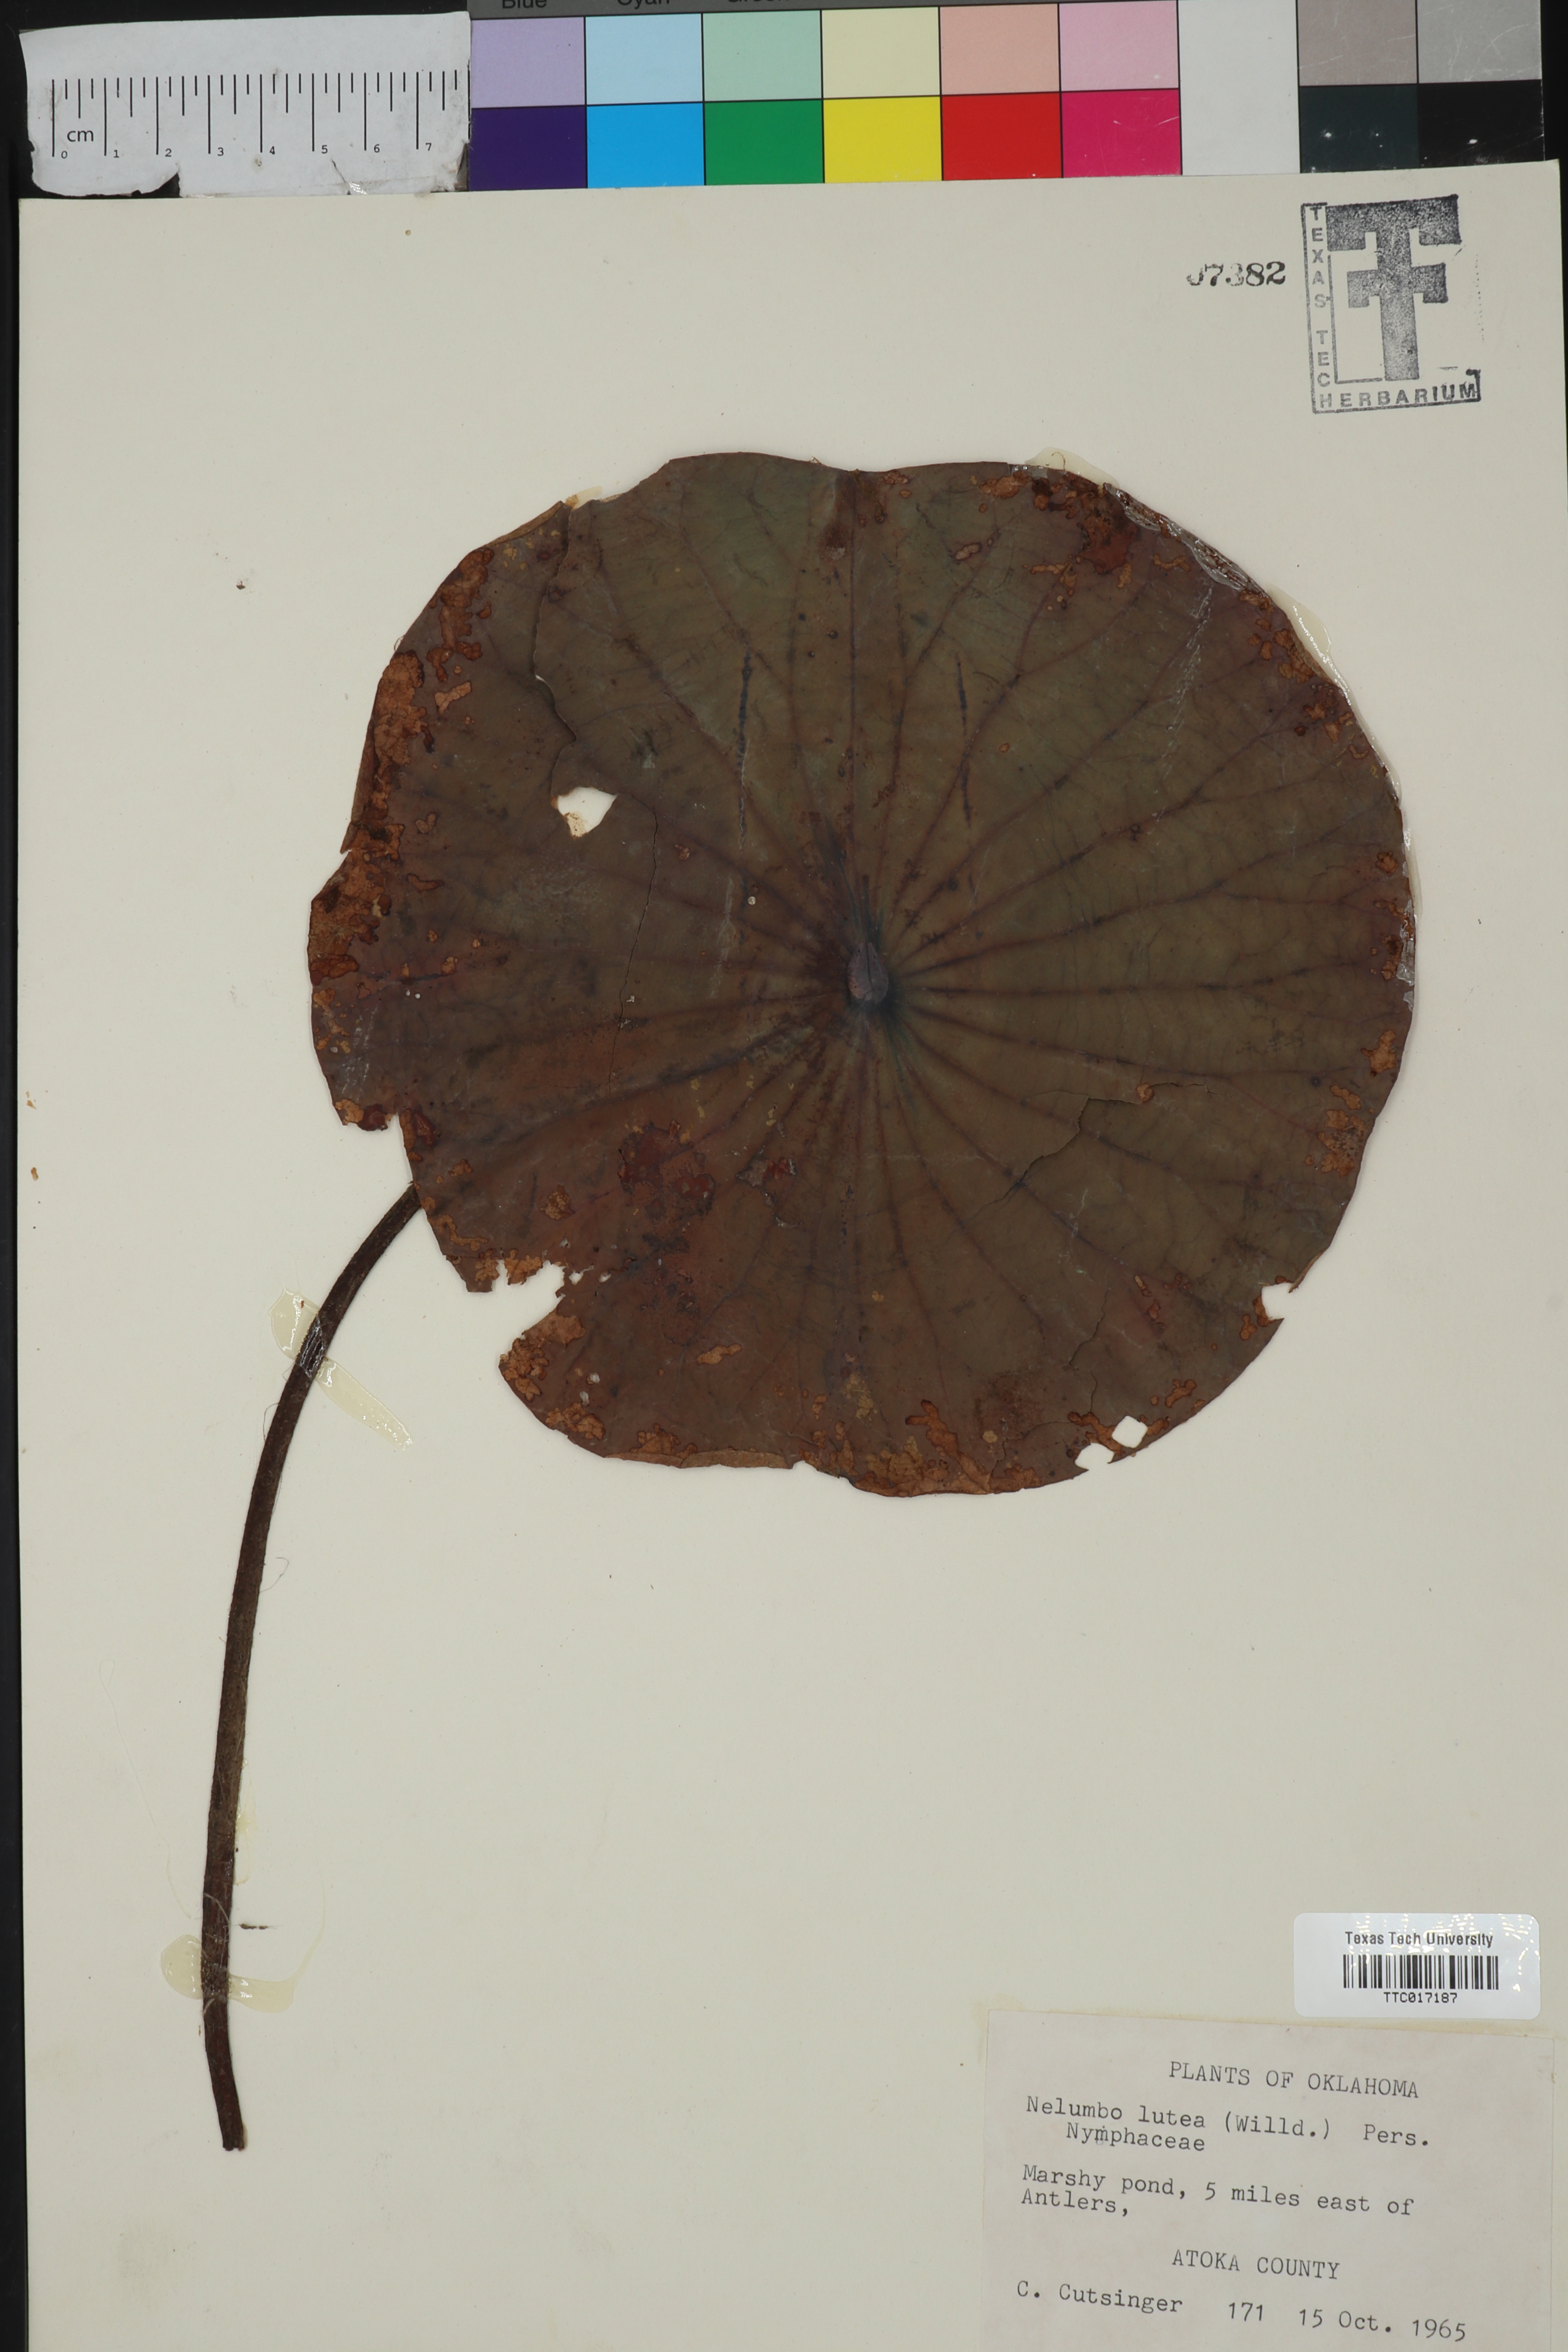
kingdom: Plantae
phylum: Tracheophyta
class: Magnoliopsida
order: Proteales
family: Nelumbonaceae
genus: Nelumbo
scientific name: Nelumbo lutea
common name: American lotus
